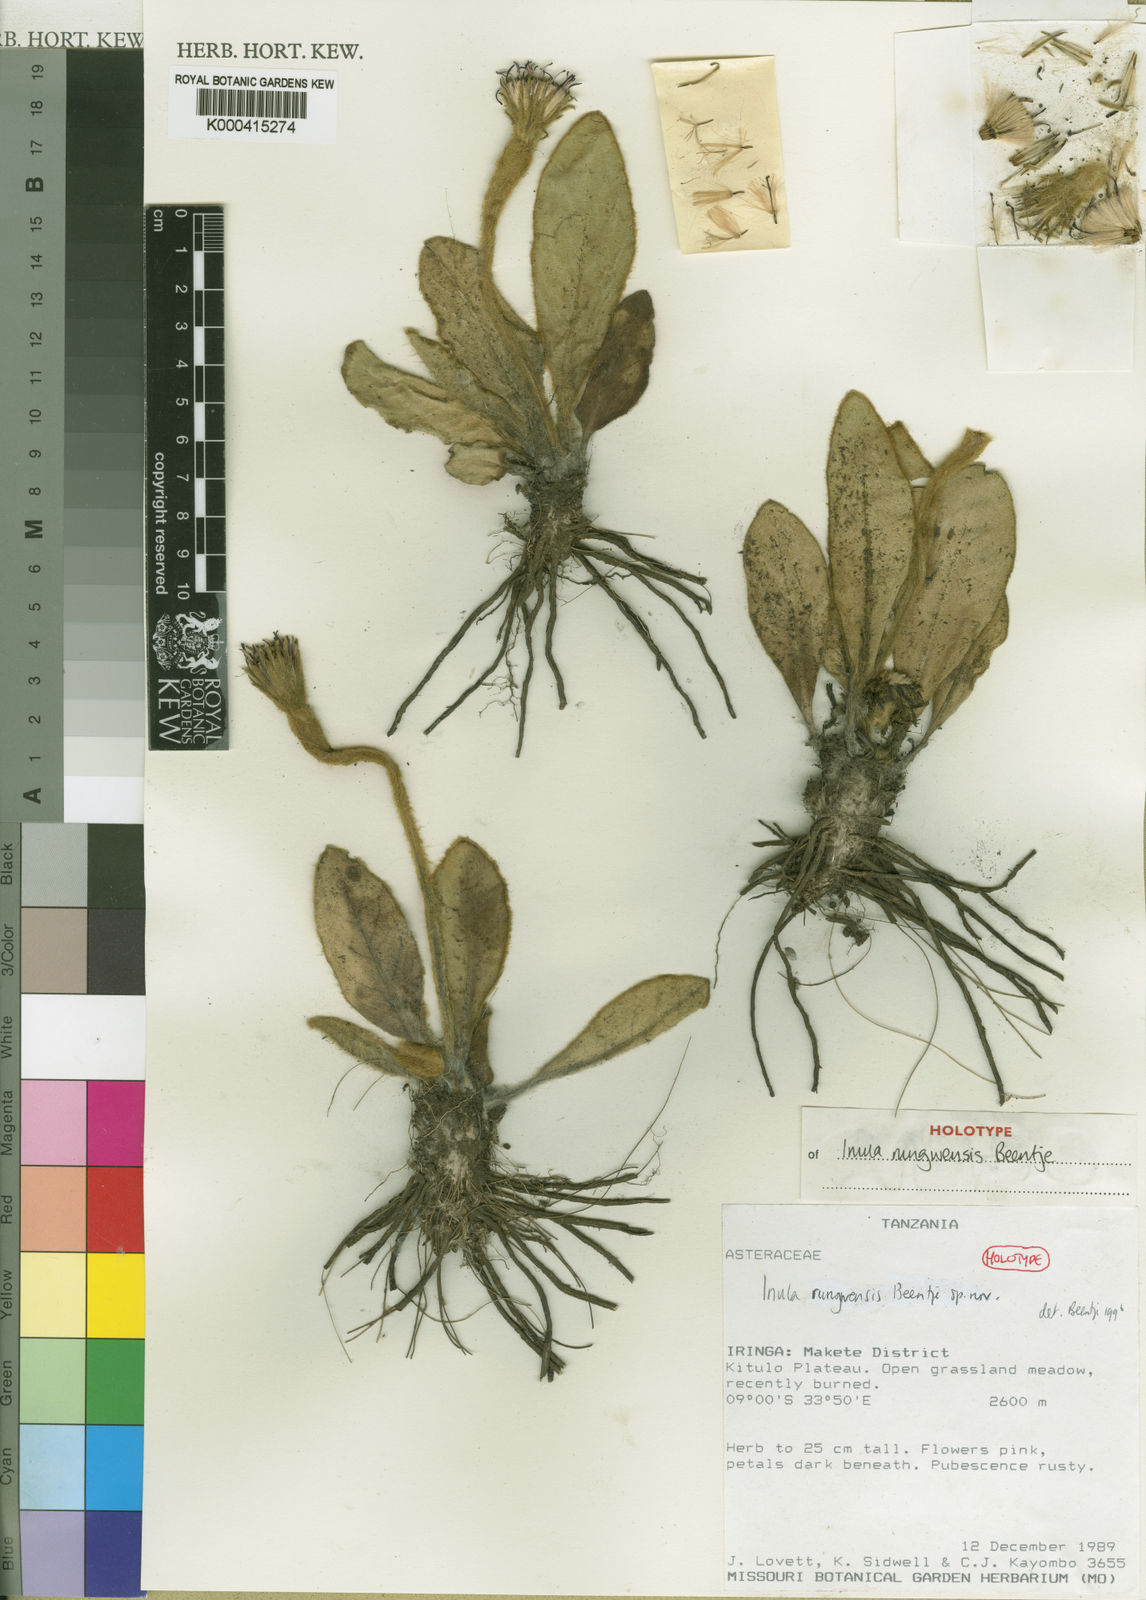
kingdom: Plantae
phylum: Tracheophyta
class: Magnoliopsida
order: Asterales
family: Asteraceae
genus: Piloselloides
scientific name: Piloselloides hirsuta
